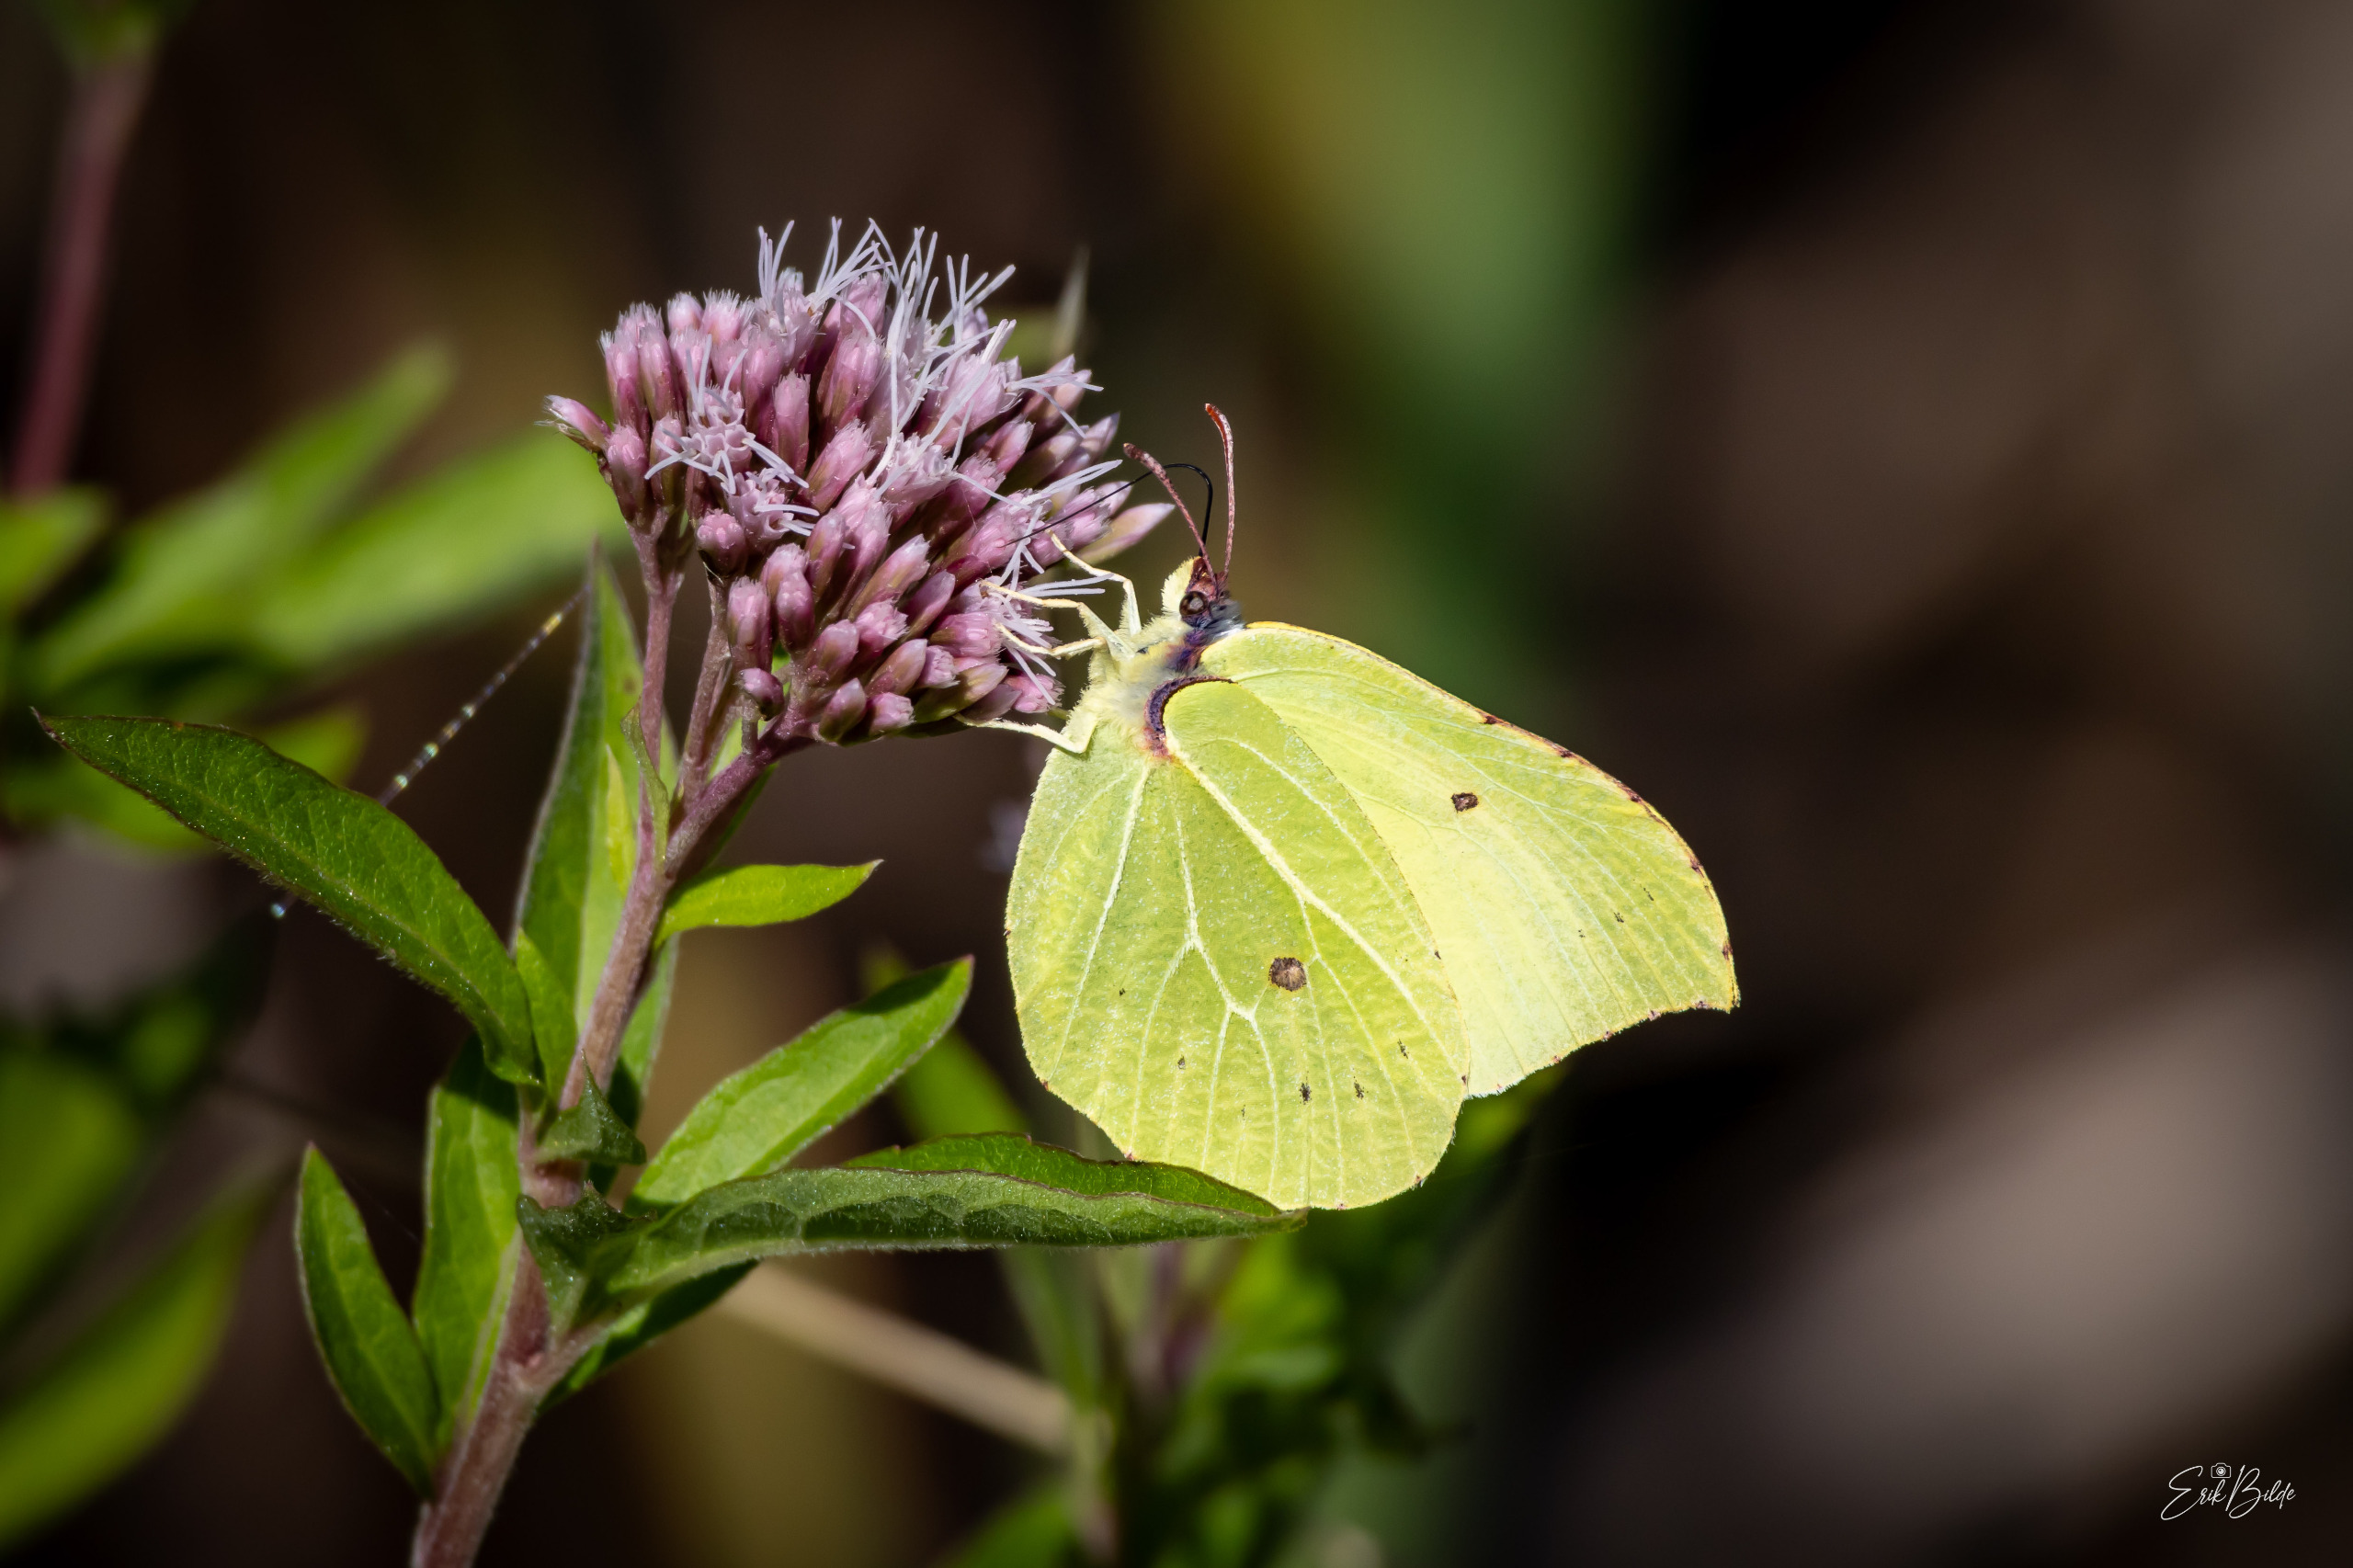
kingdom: Animalia
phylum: Arthropoda
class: Insecta
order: Lepidoptera
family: Pieridae
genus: Gonepteryx
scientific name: Gonepteryx rhamni
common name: Citronsommerfugl
